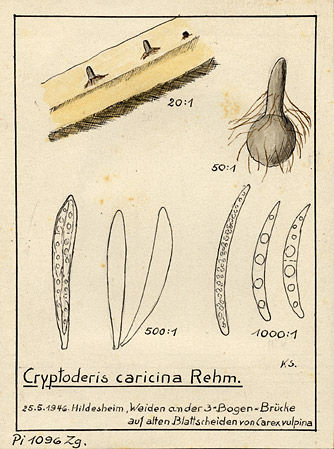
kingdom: Fungi
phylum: Ascomycota
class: Sordariomycetes
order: Diaporthales
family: Gnomoniaceae
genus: Cryptoderis
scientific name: Cryptoderis caricina
